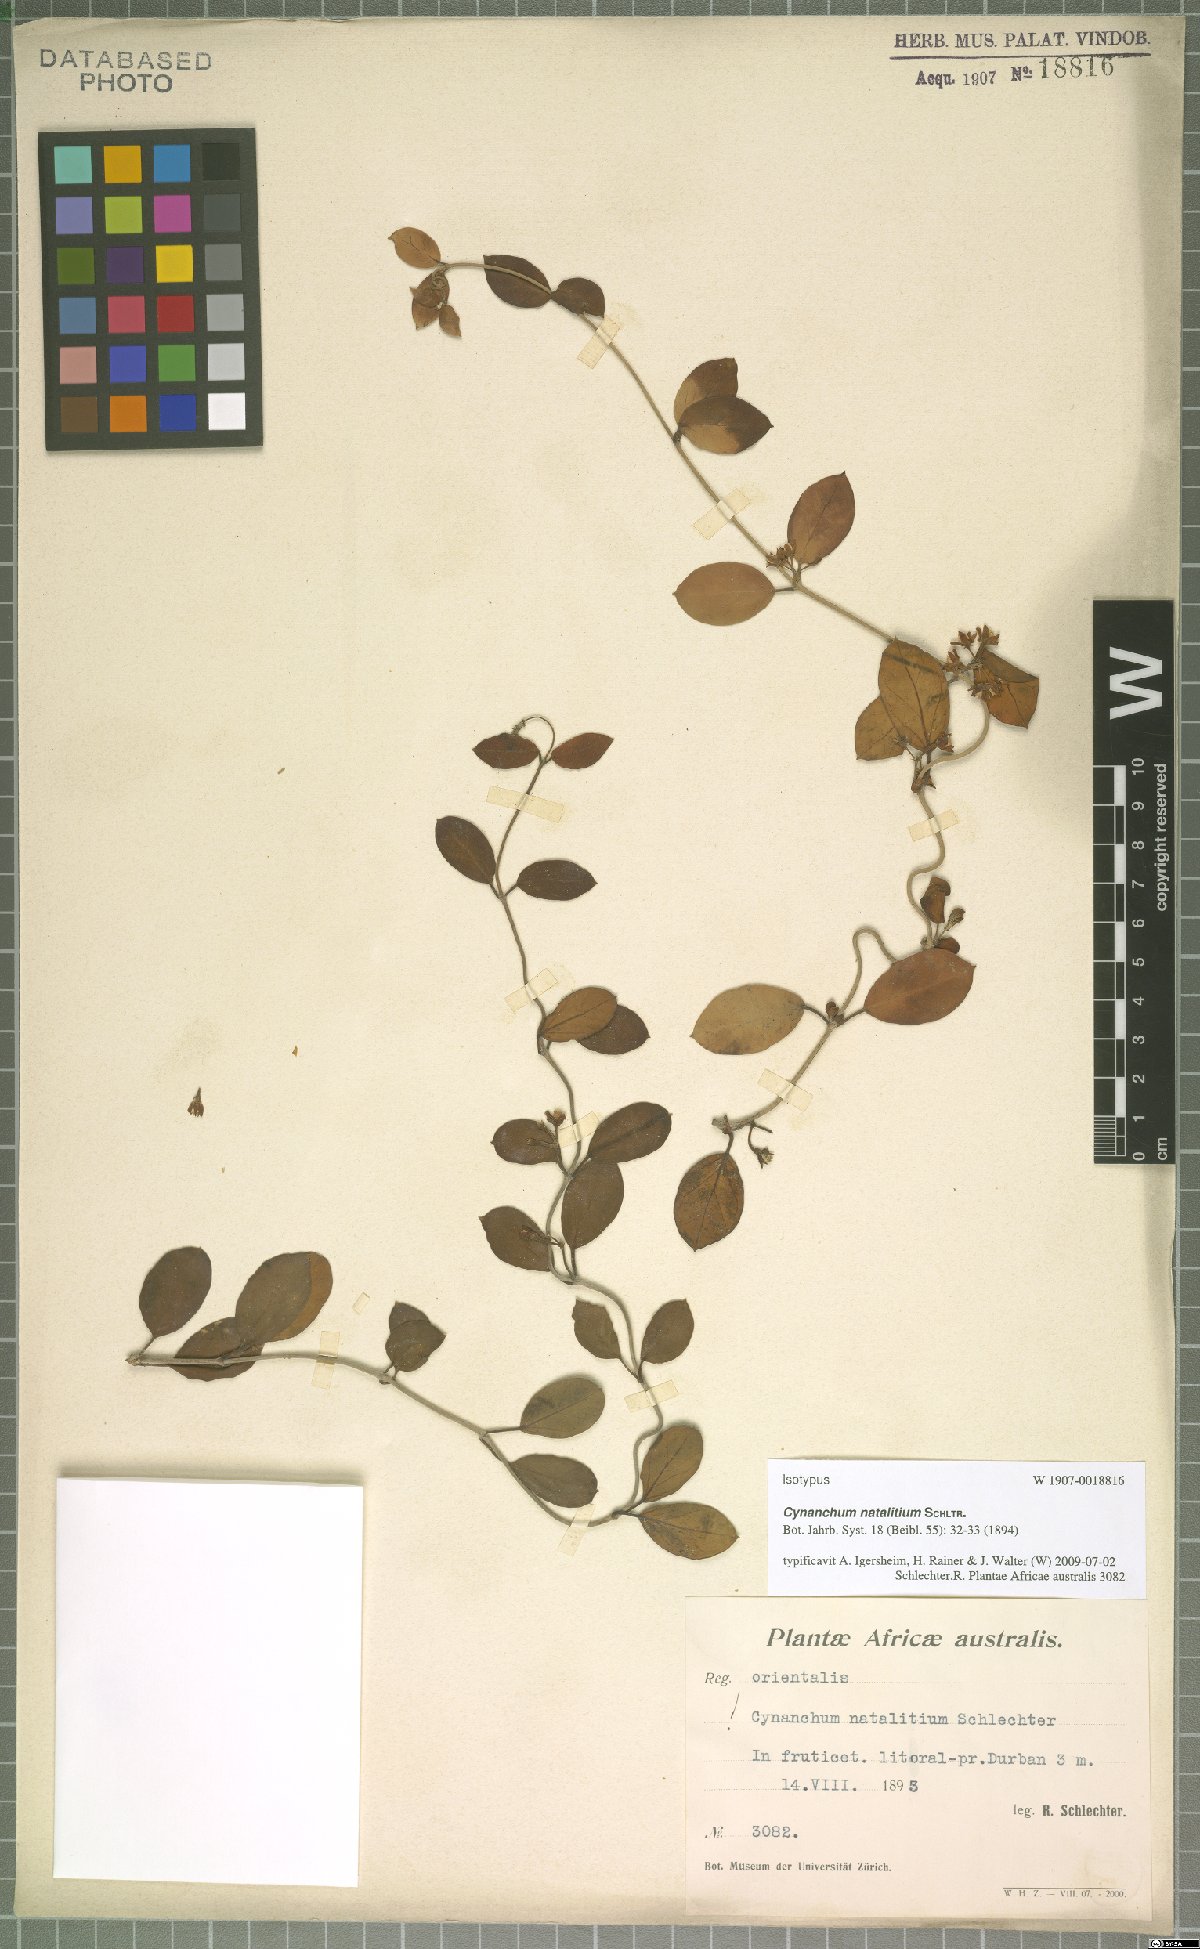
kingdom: Plantae
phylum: Tracheophyta
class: Magnoliopsida
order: Gentianales
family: Apocynaceae
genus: Cynanchum
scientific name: Cynanchum natalitium
